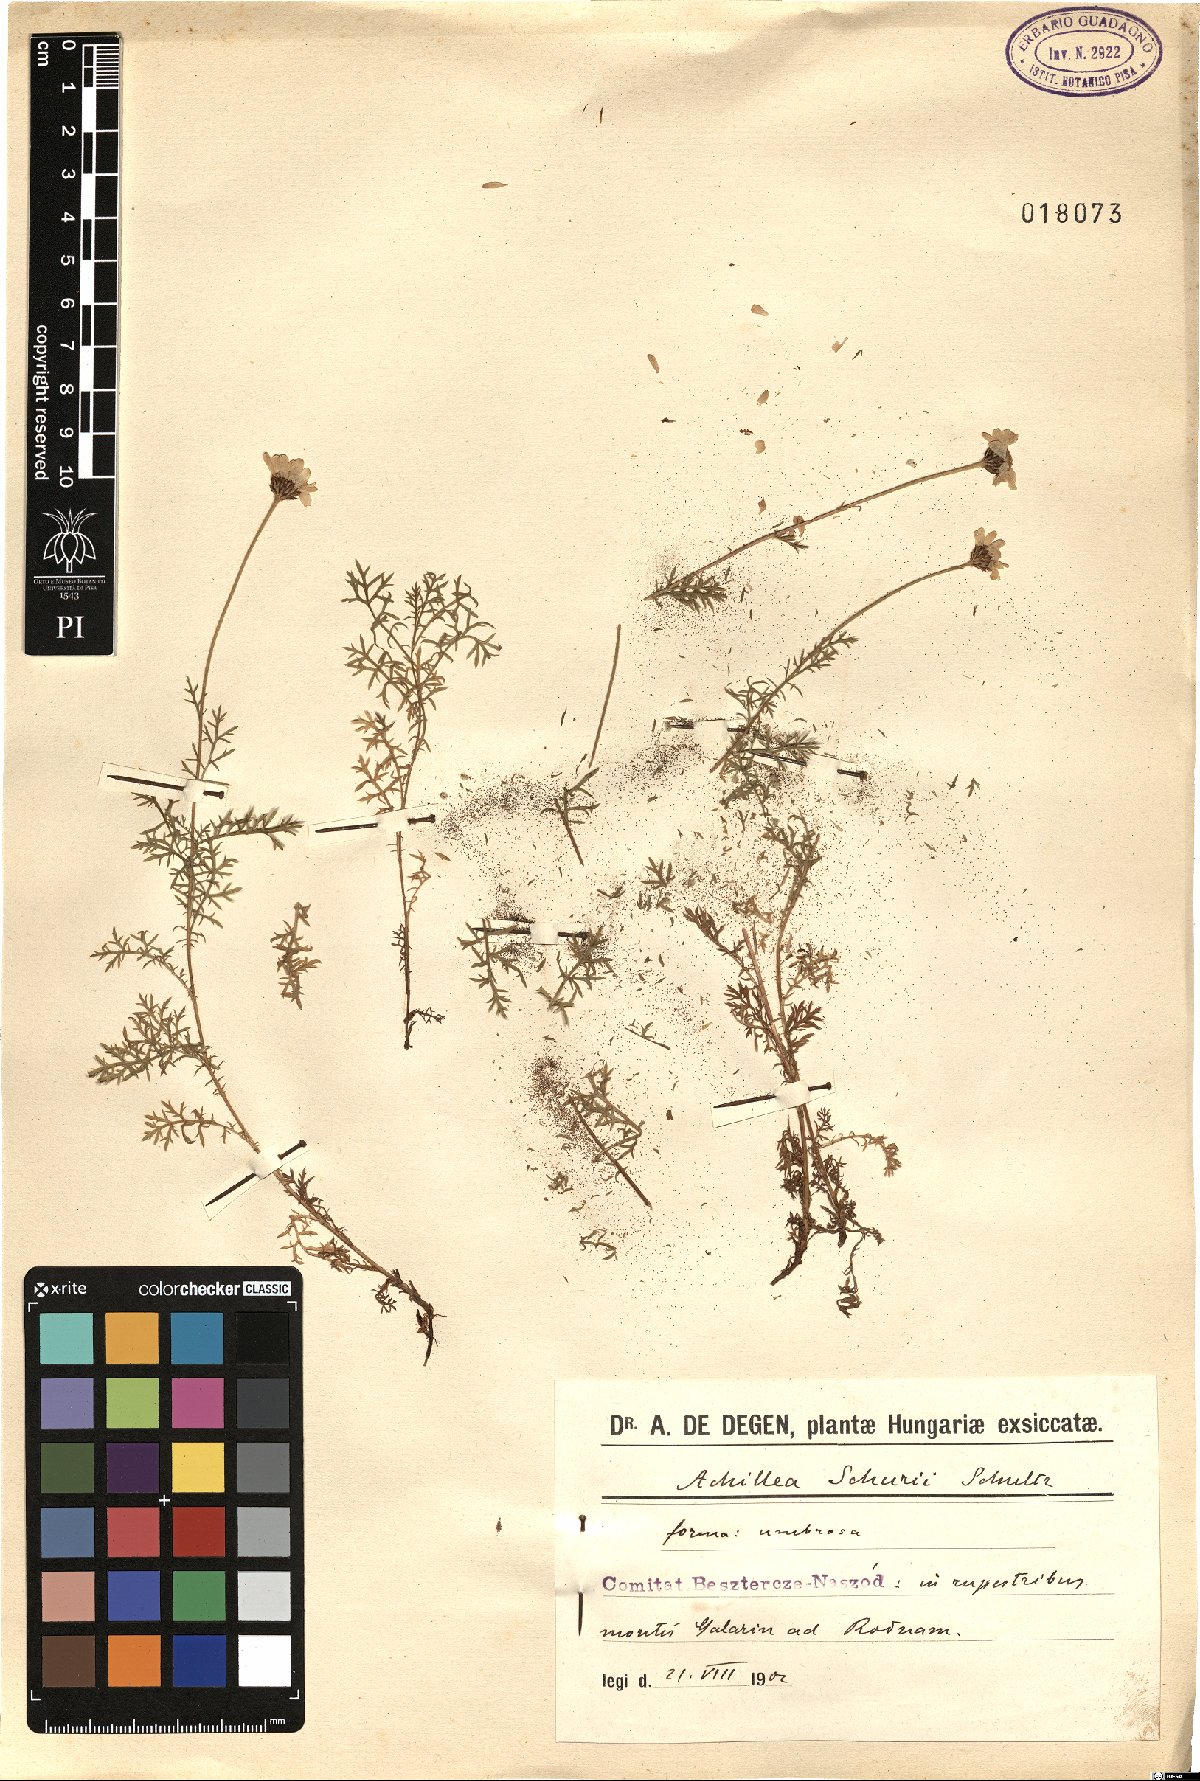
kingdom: Plantae
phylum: Tracheophyta
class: Magnoliopsida
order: Asterales
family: Asteraceae
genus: Achillea
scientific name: Achillea oxyloba
